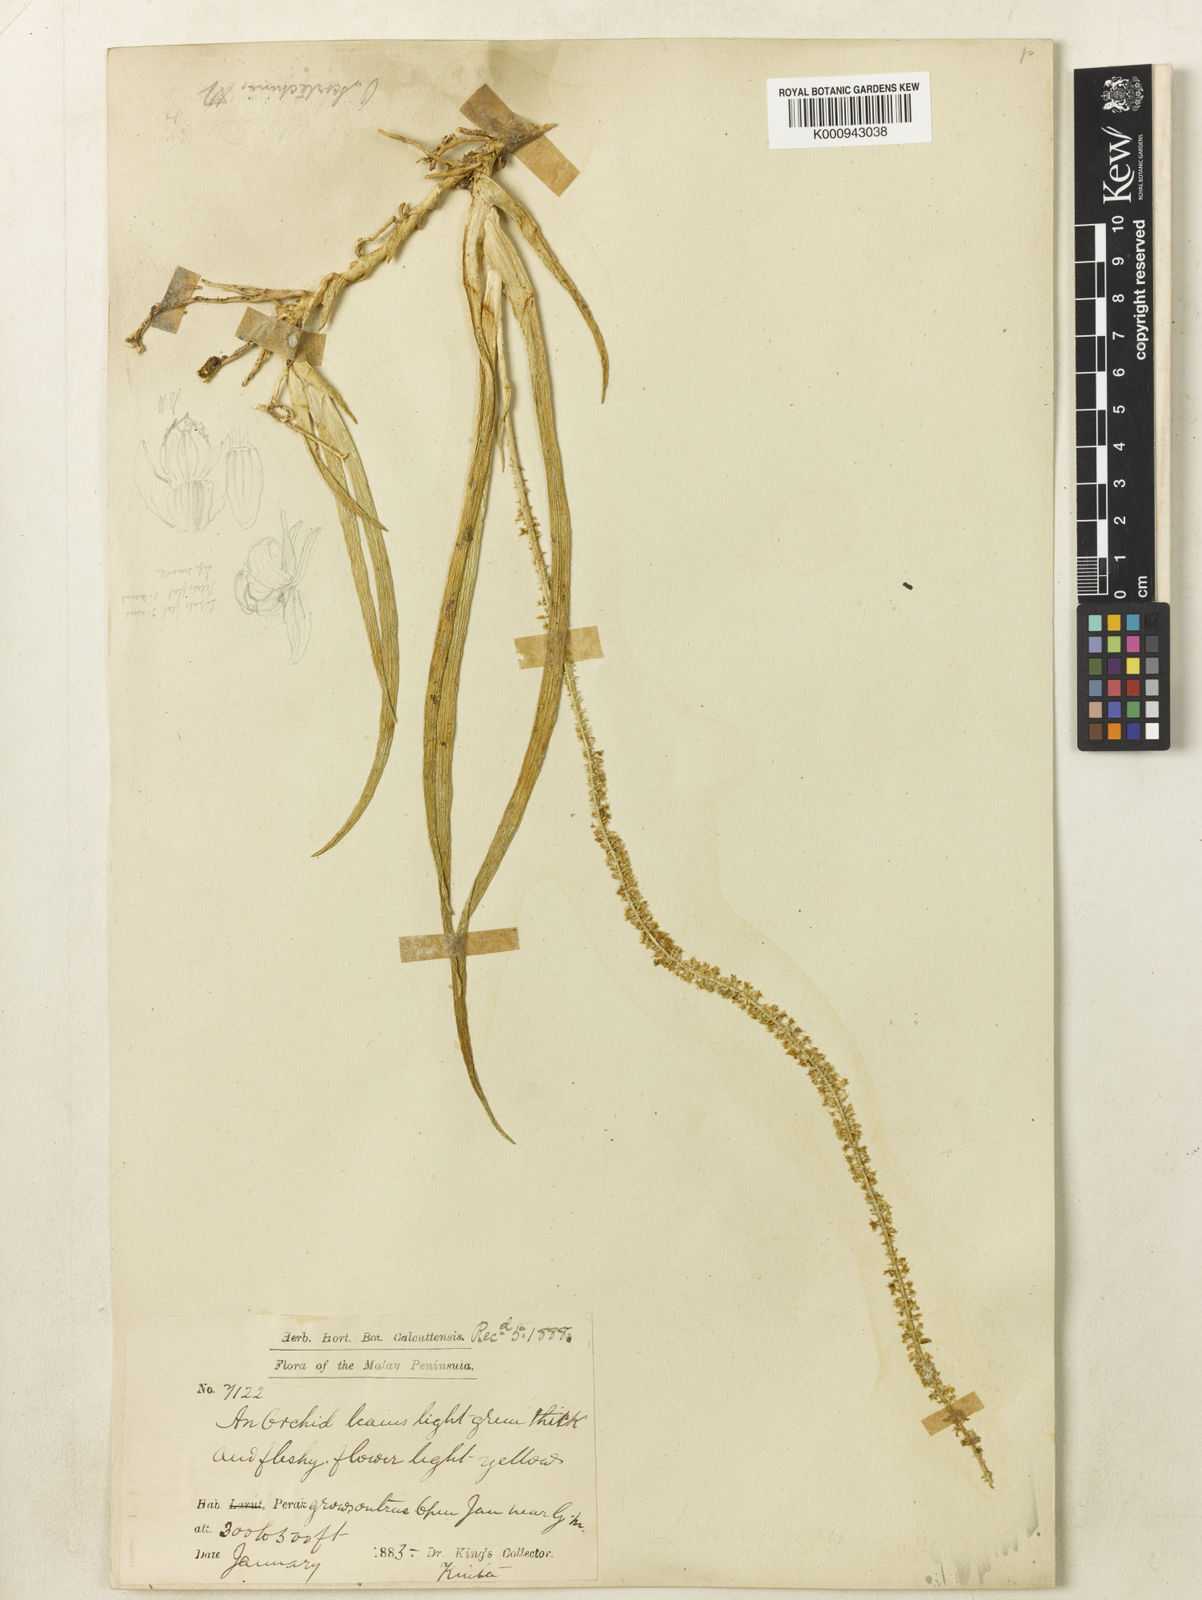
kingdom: Plantae
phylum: Tracheophyta
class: Liliopsida
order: Asparagales
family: Orchidaceae
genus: Hippeophyllum
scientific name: Hippeophyllum scortechinii
